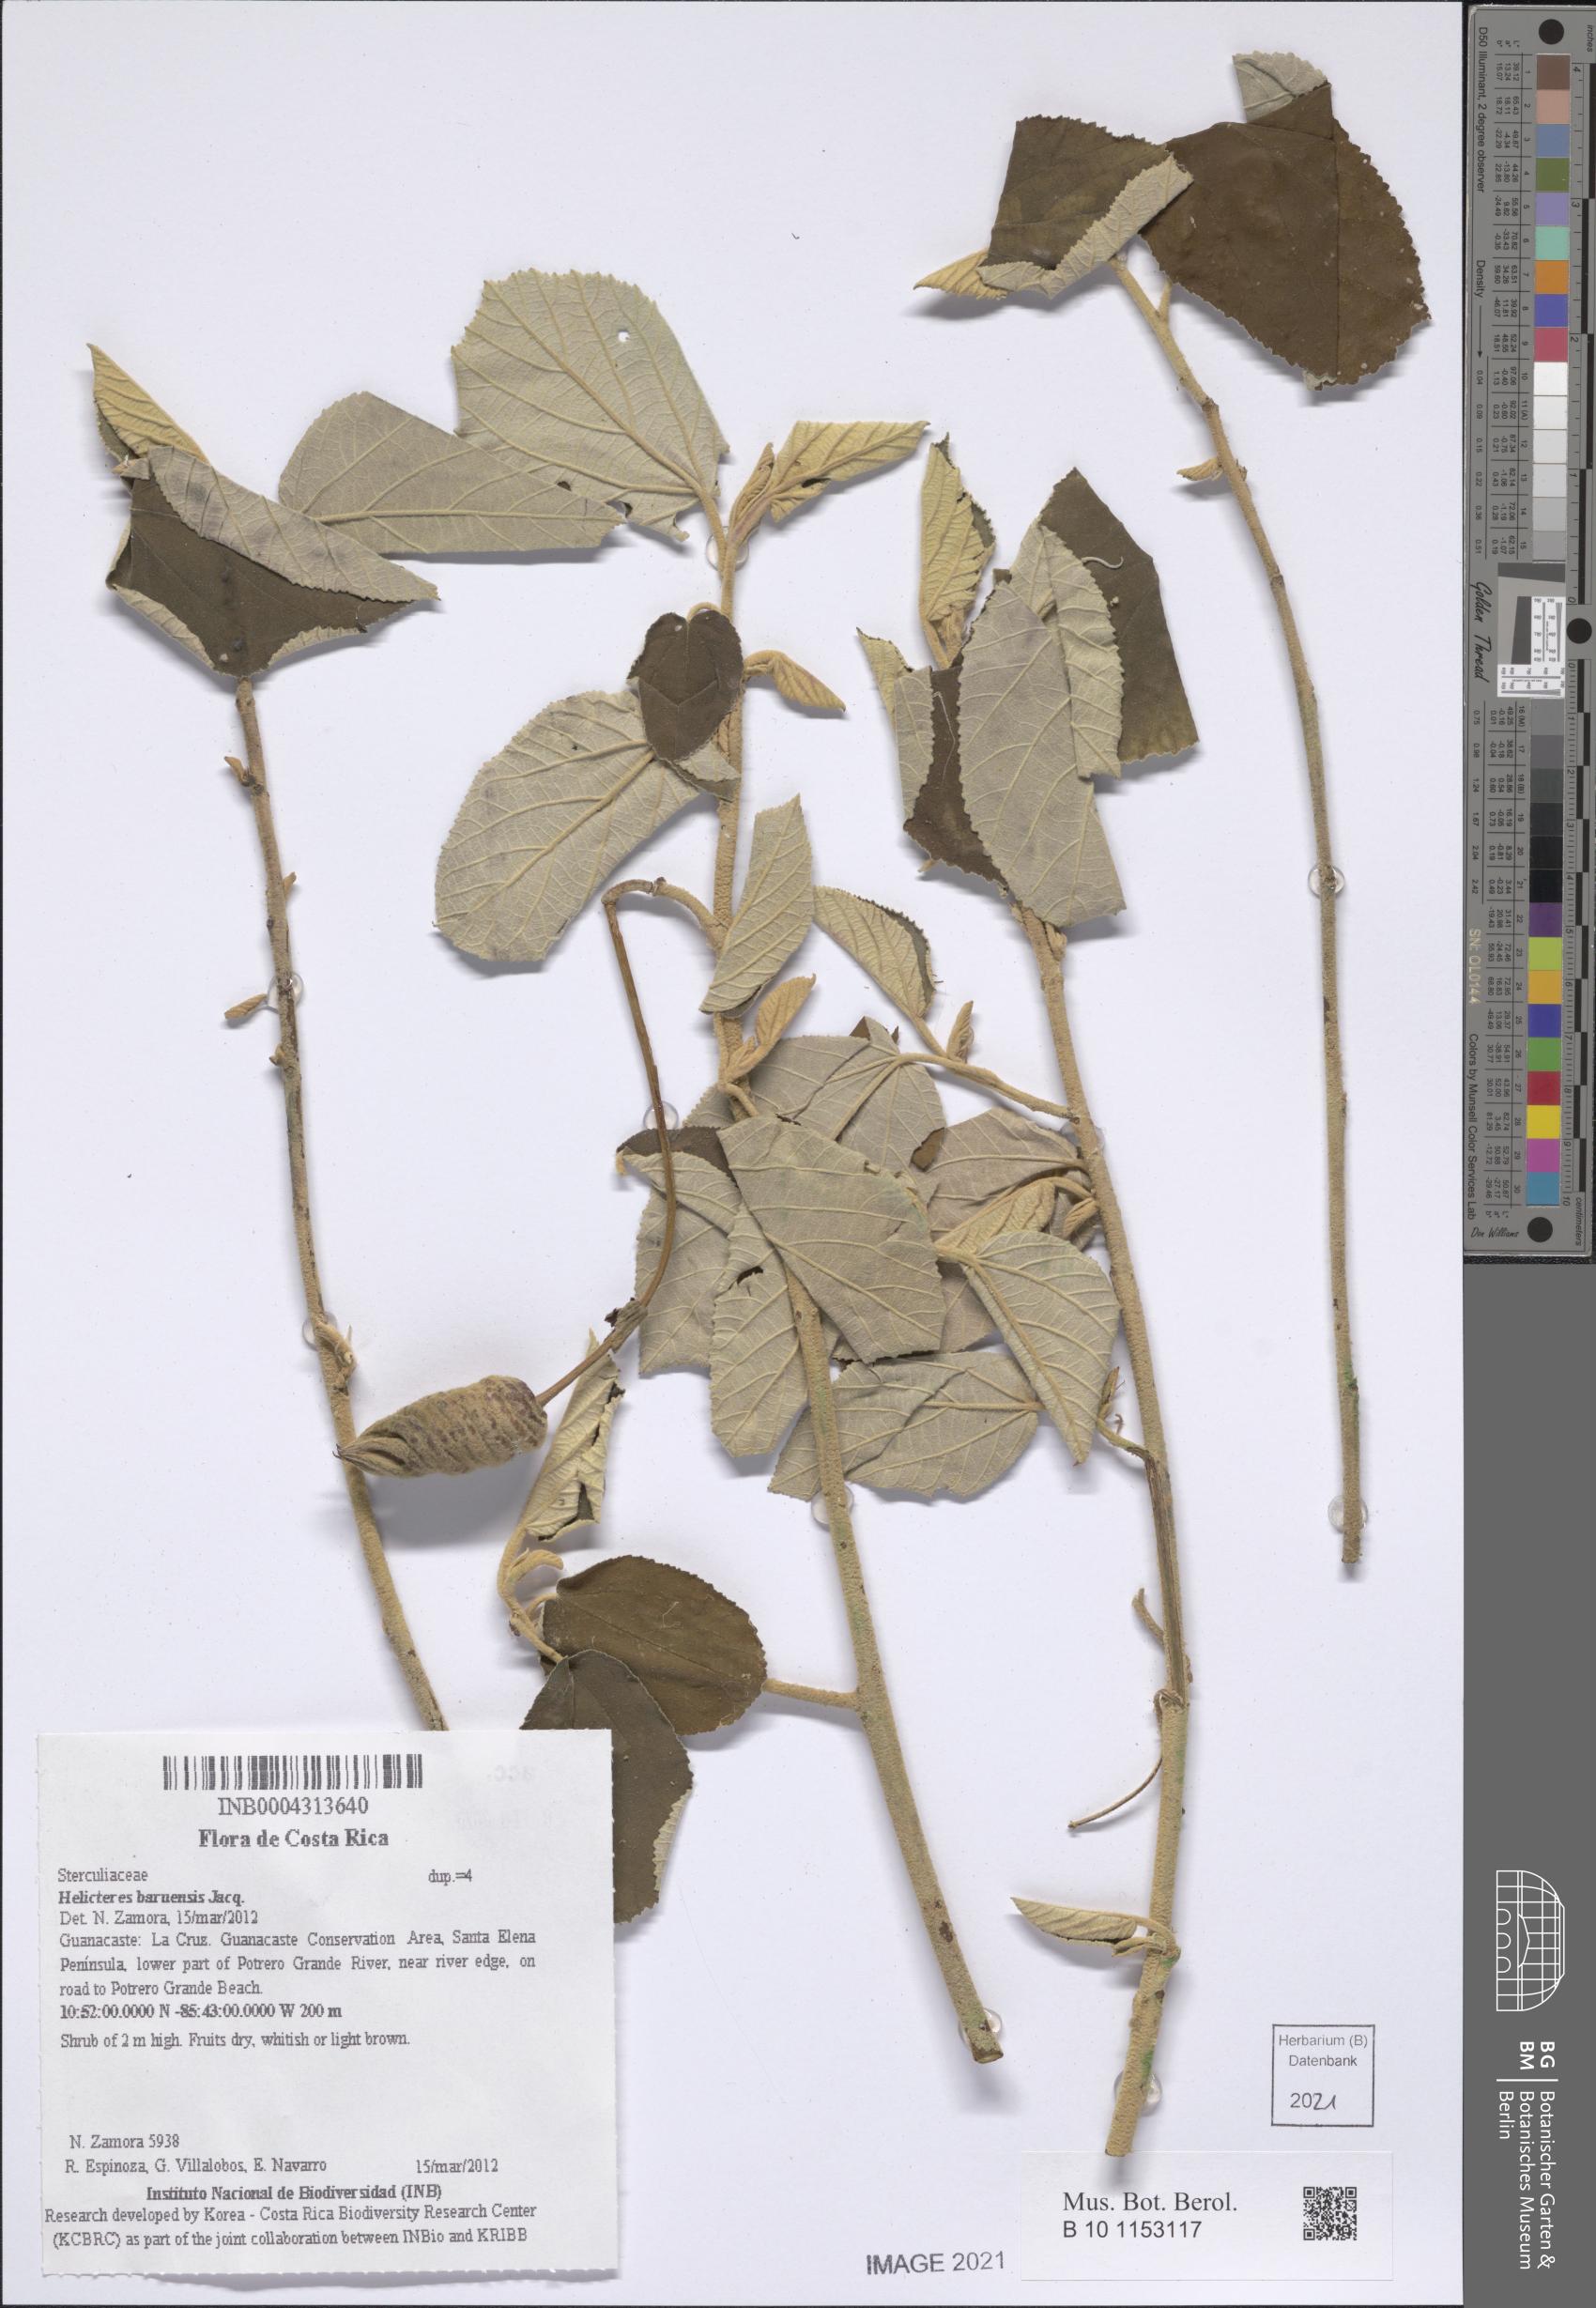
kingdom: Plantae
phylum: Tracheophyta
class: Magnoliopsida
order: Malvales
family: Malvaceae
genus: Helicteres
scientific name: Helicteres baruensis
